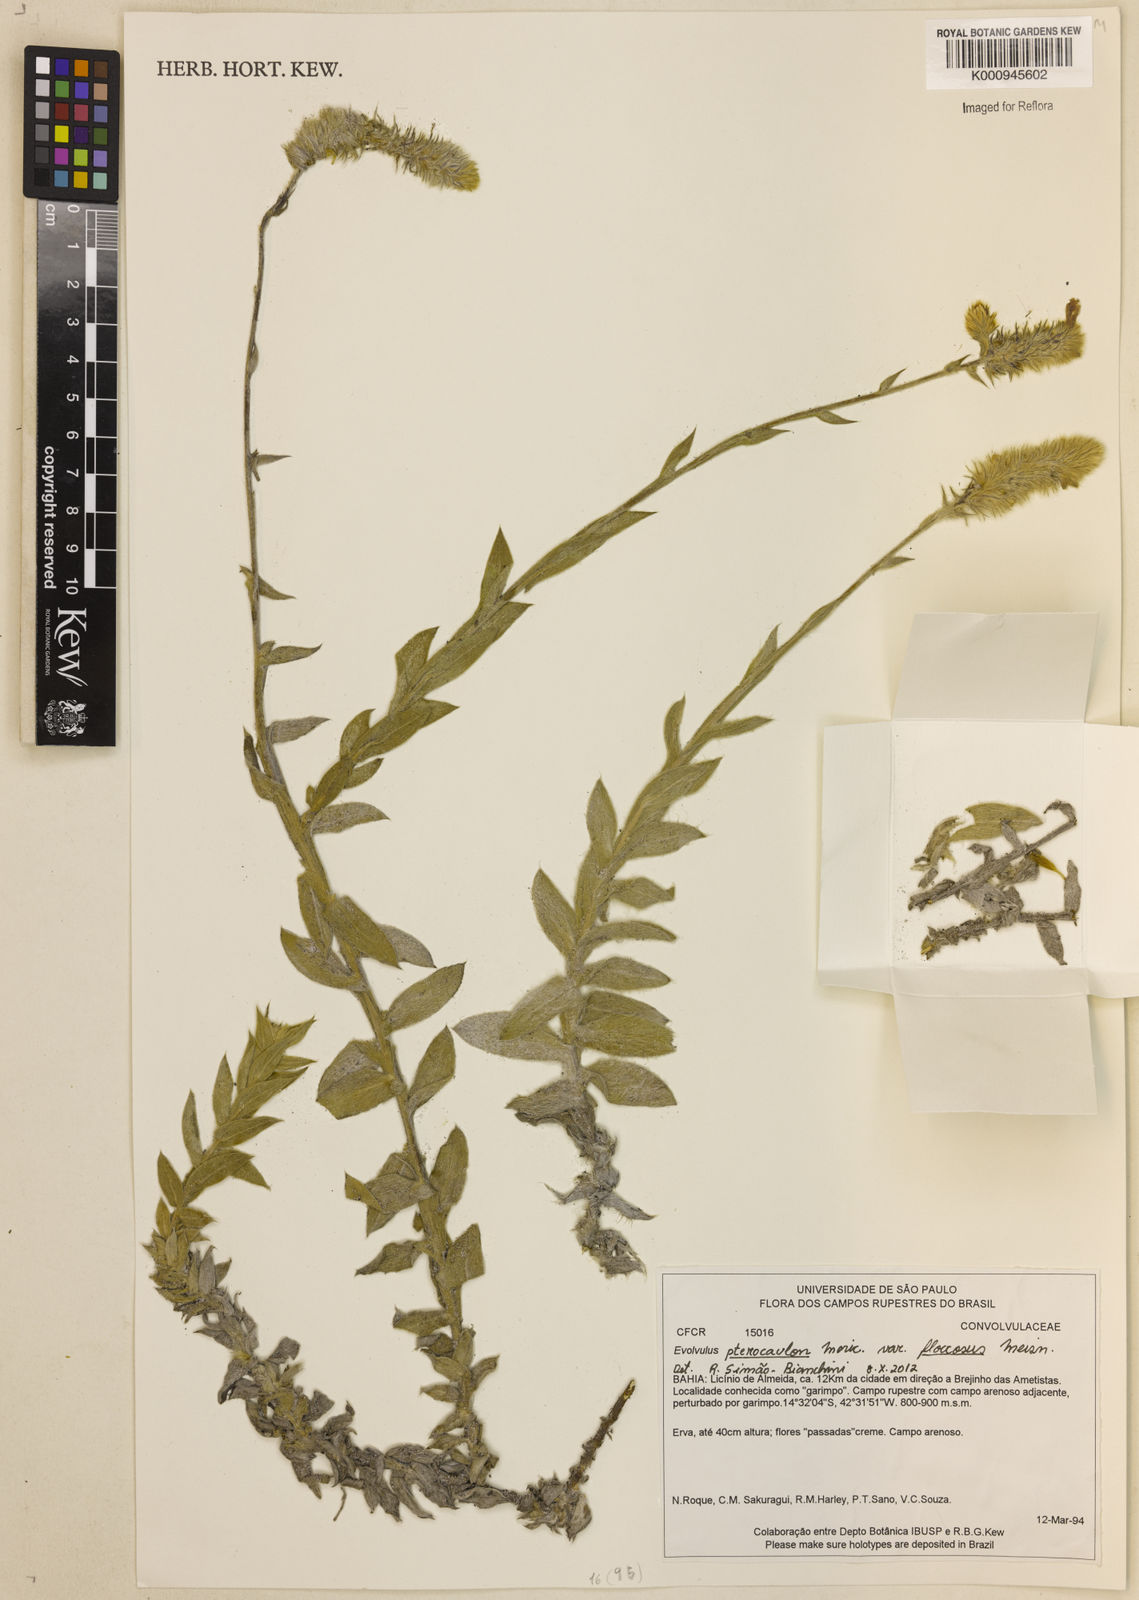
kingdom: Plantae
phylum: Tracheophyta
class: Magnoliopsida
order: Solanales
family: Convolvulaceae
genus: Evolvulus
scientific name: Evolvulus pterocaulon
